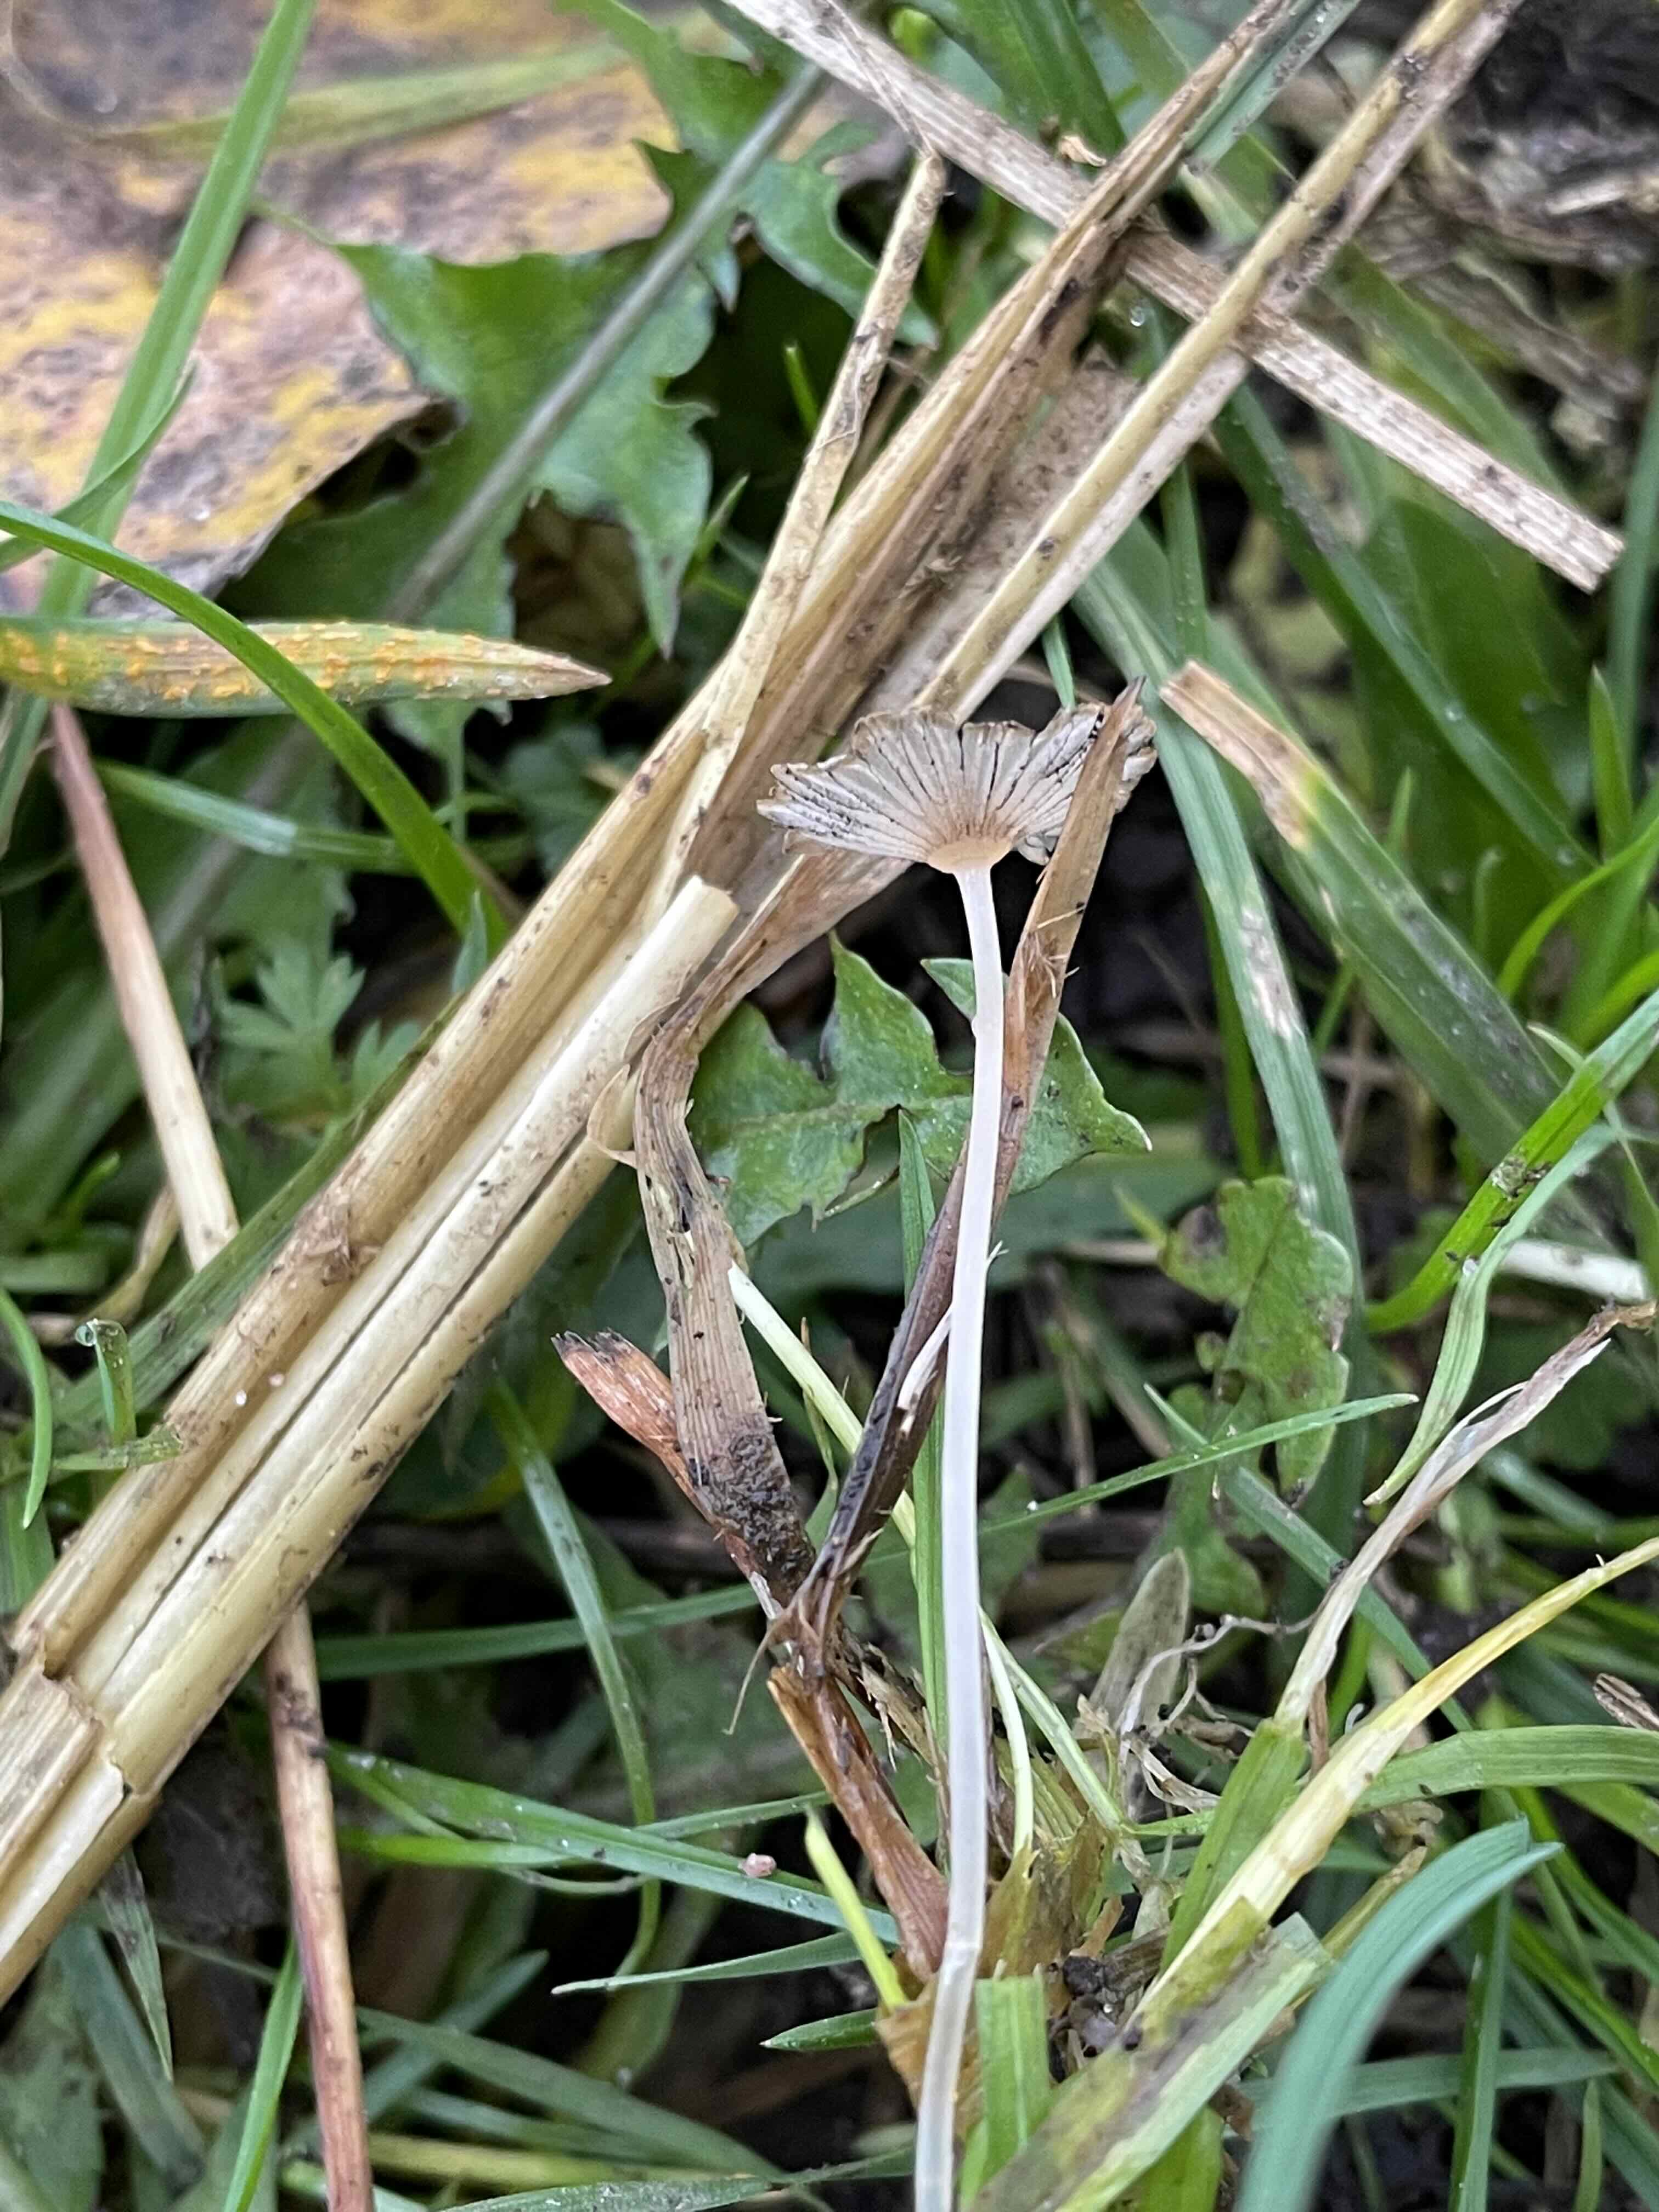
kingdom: Fungi
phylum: Basidiomycota
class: Agaricomycetes
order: Agaricales
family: Psathyrellaceae
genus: Parasola
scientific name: Parasola misera
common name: lillebitte hjulhat
